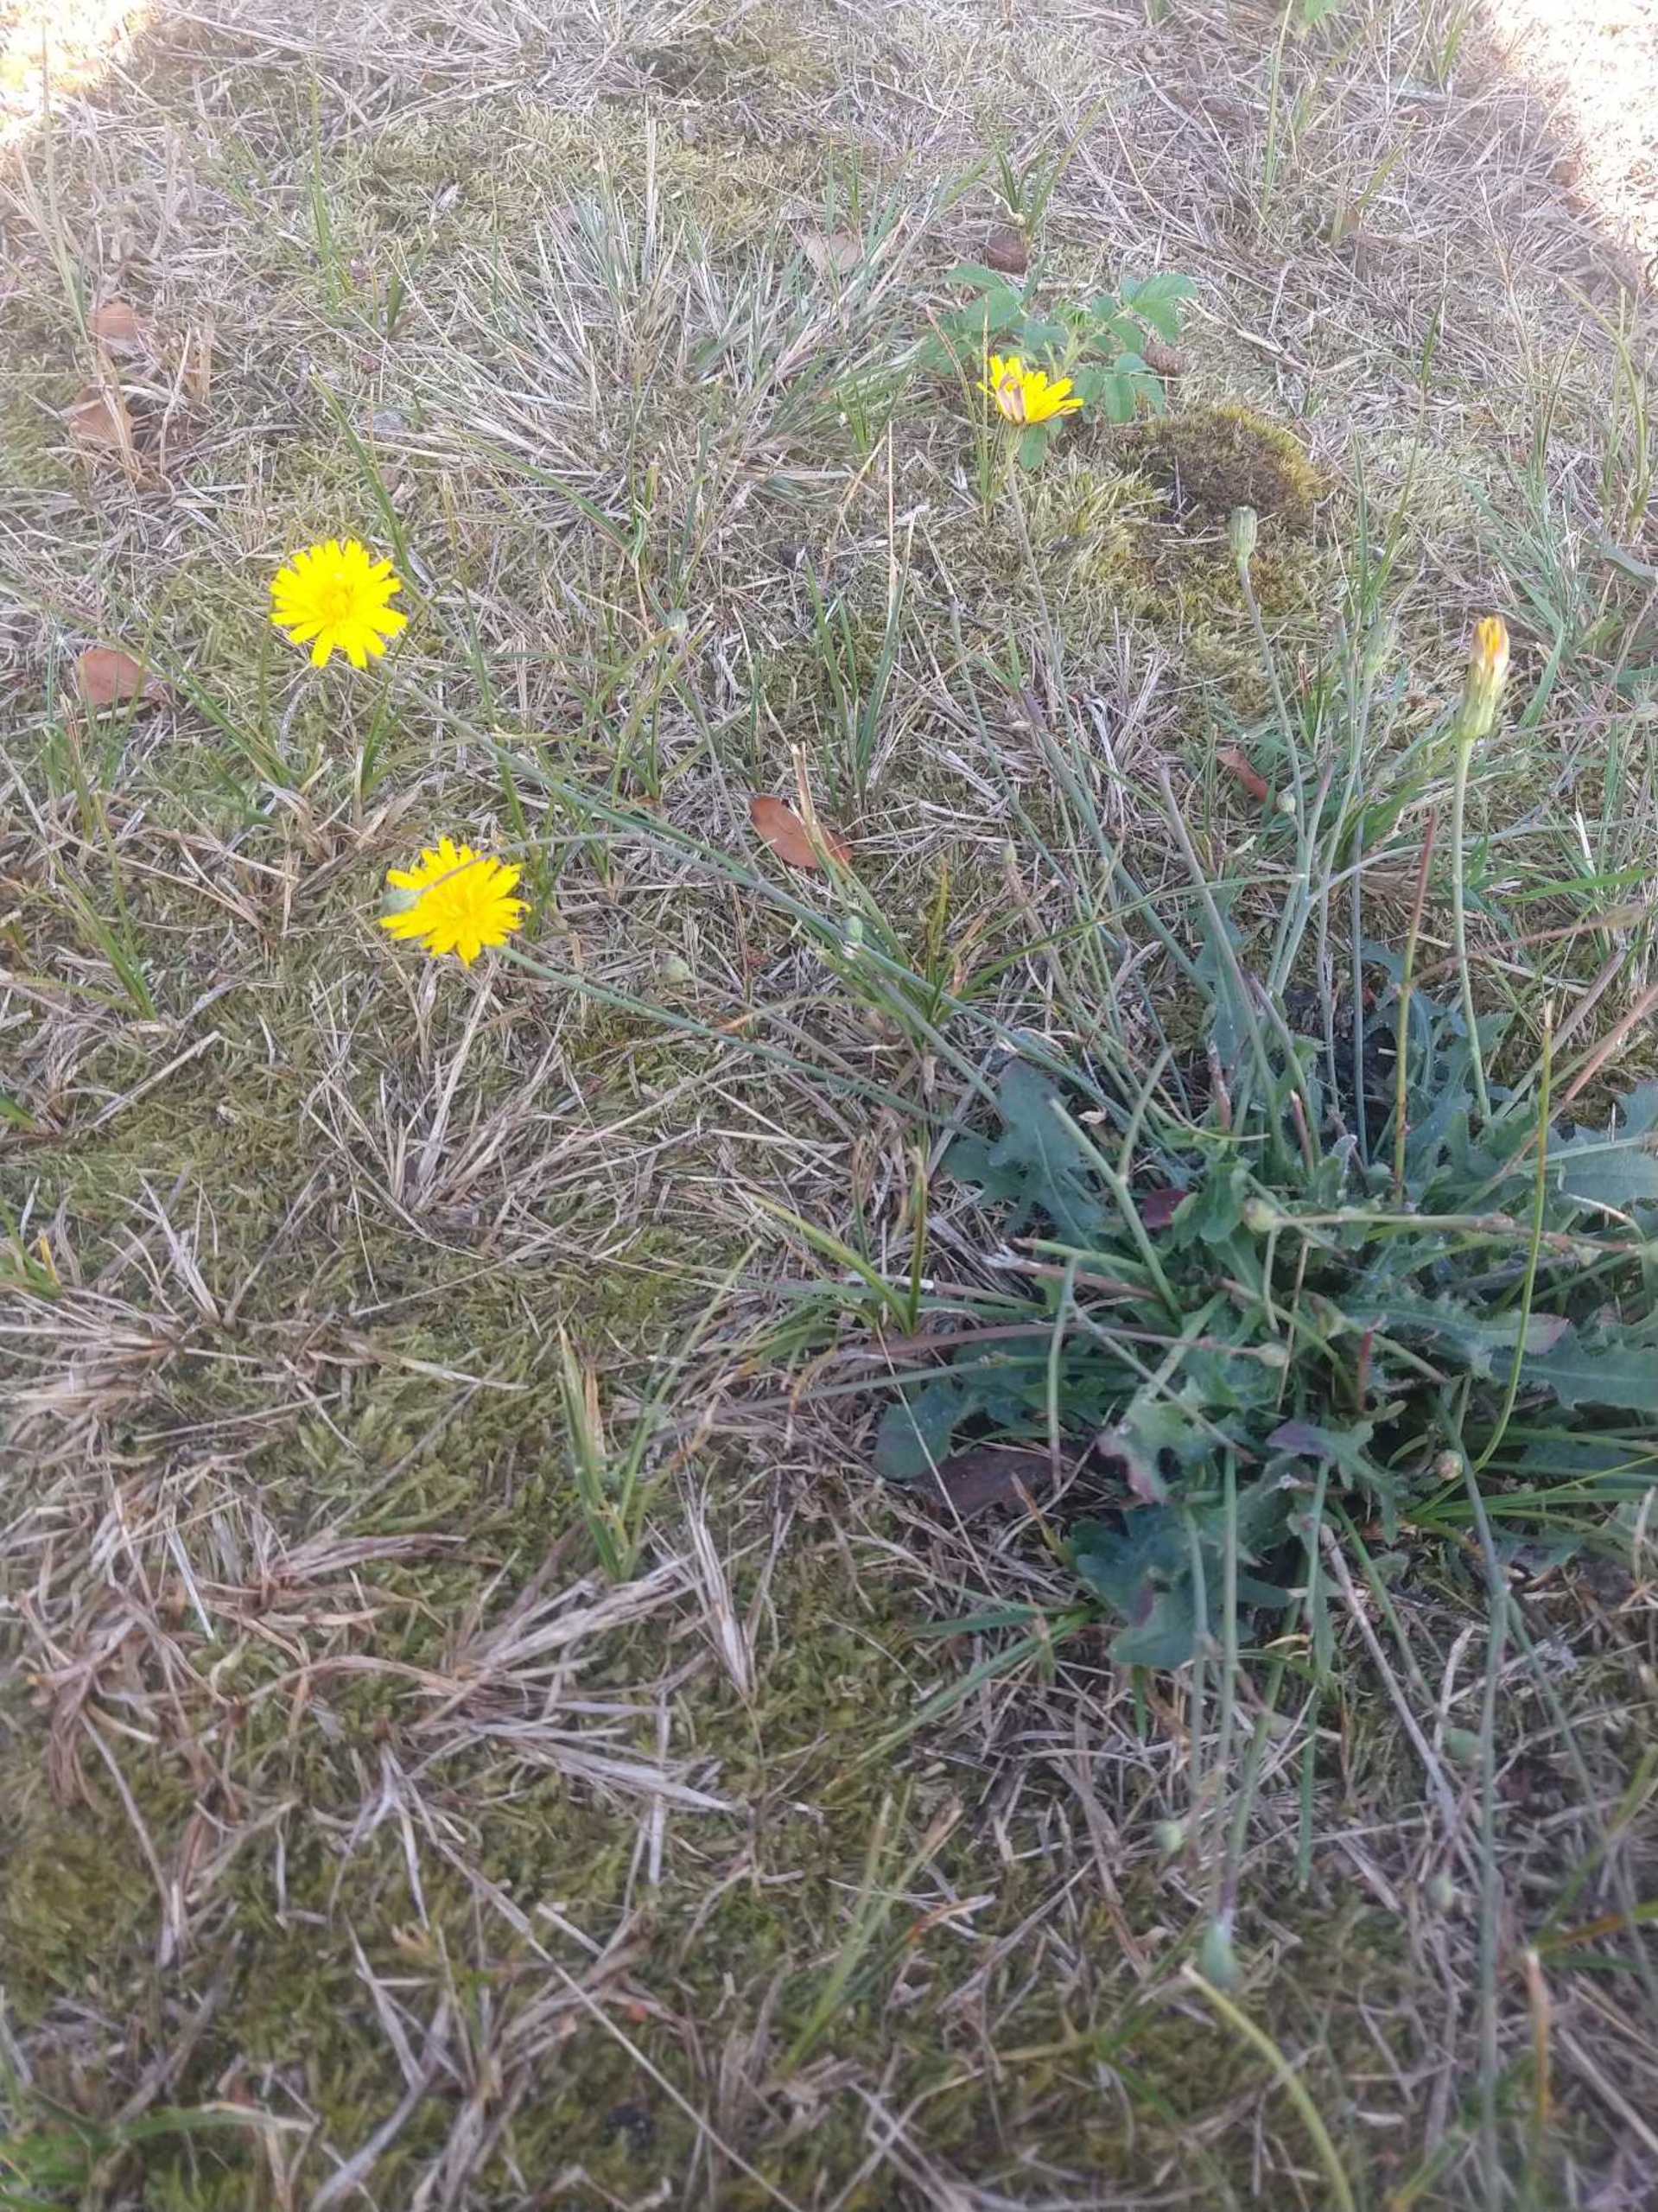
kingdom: Plantae
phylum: Tracheophyta
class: Magnoliopsida
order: Asterales
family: Asteraceae
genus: Hypochaeris
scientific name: Hypochaeris radicata
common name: Almindelig kongepen
